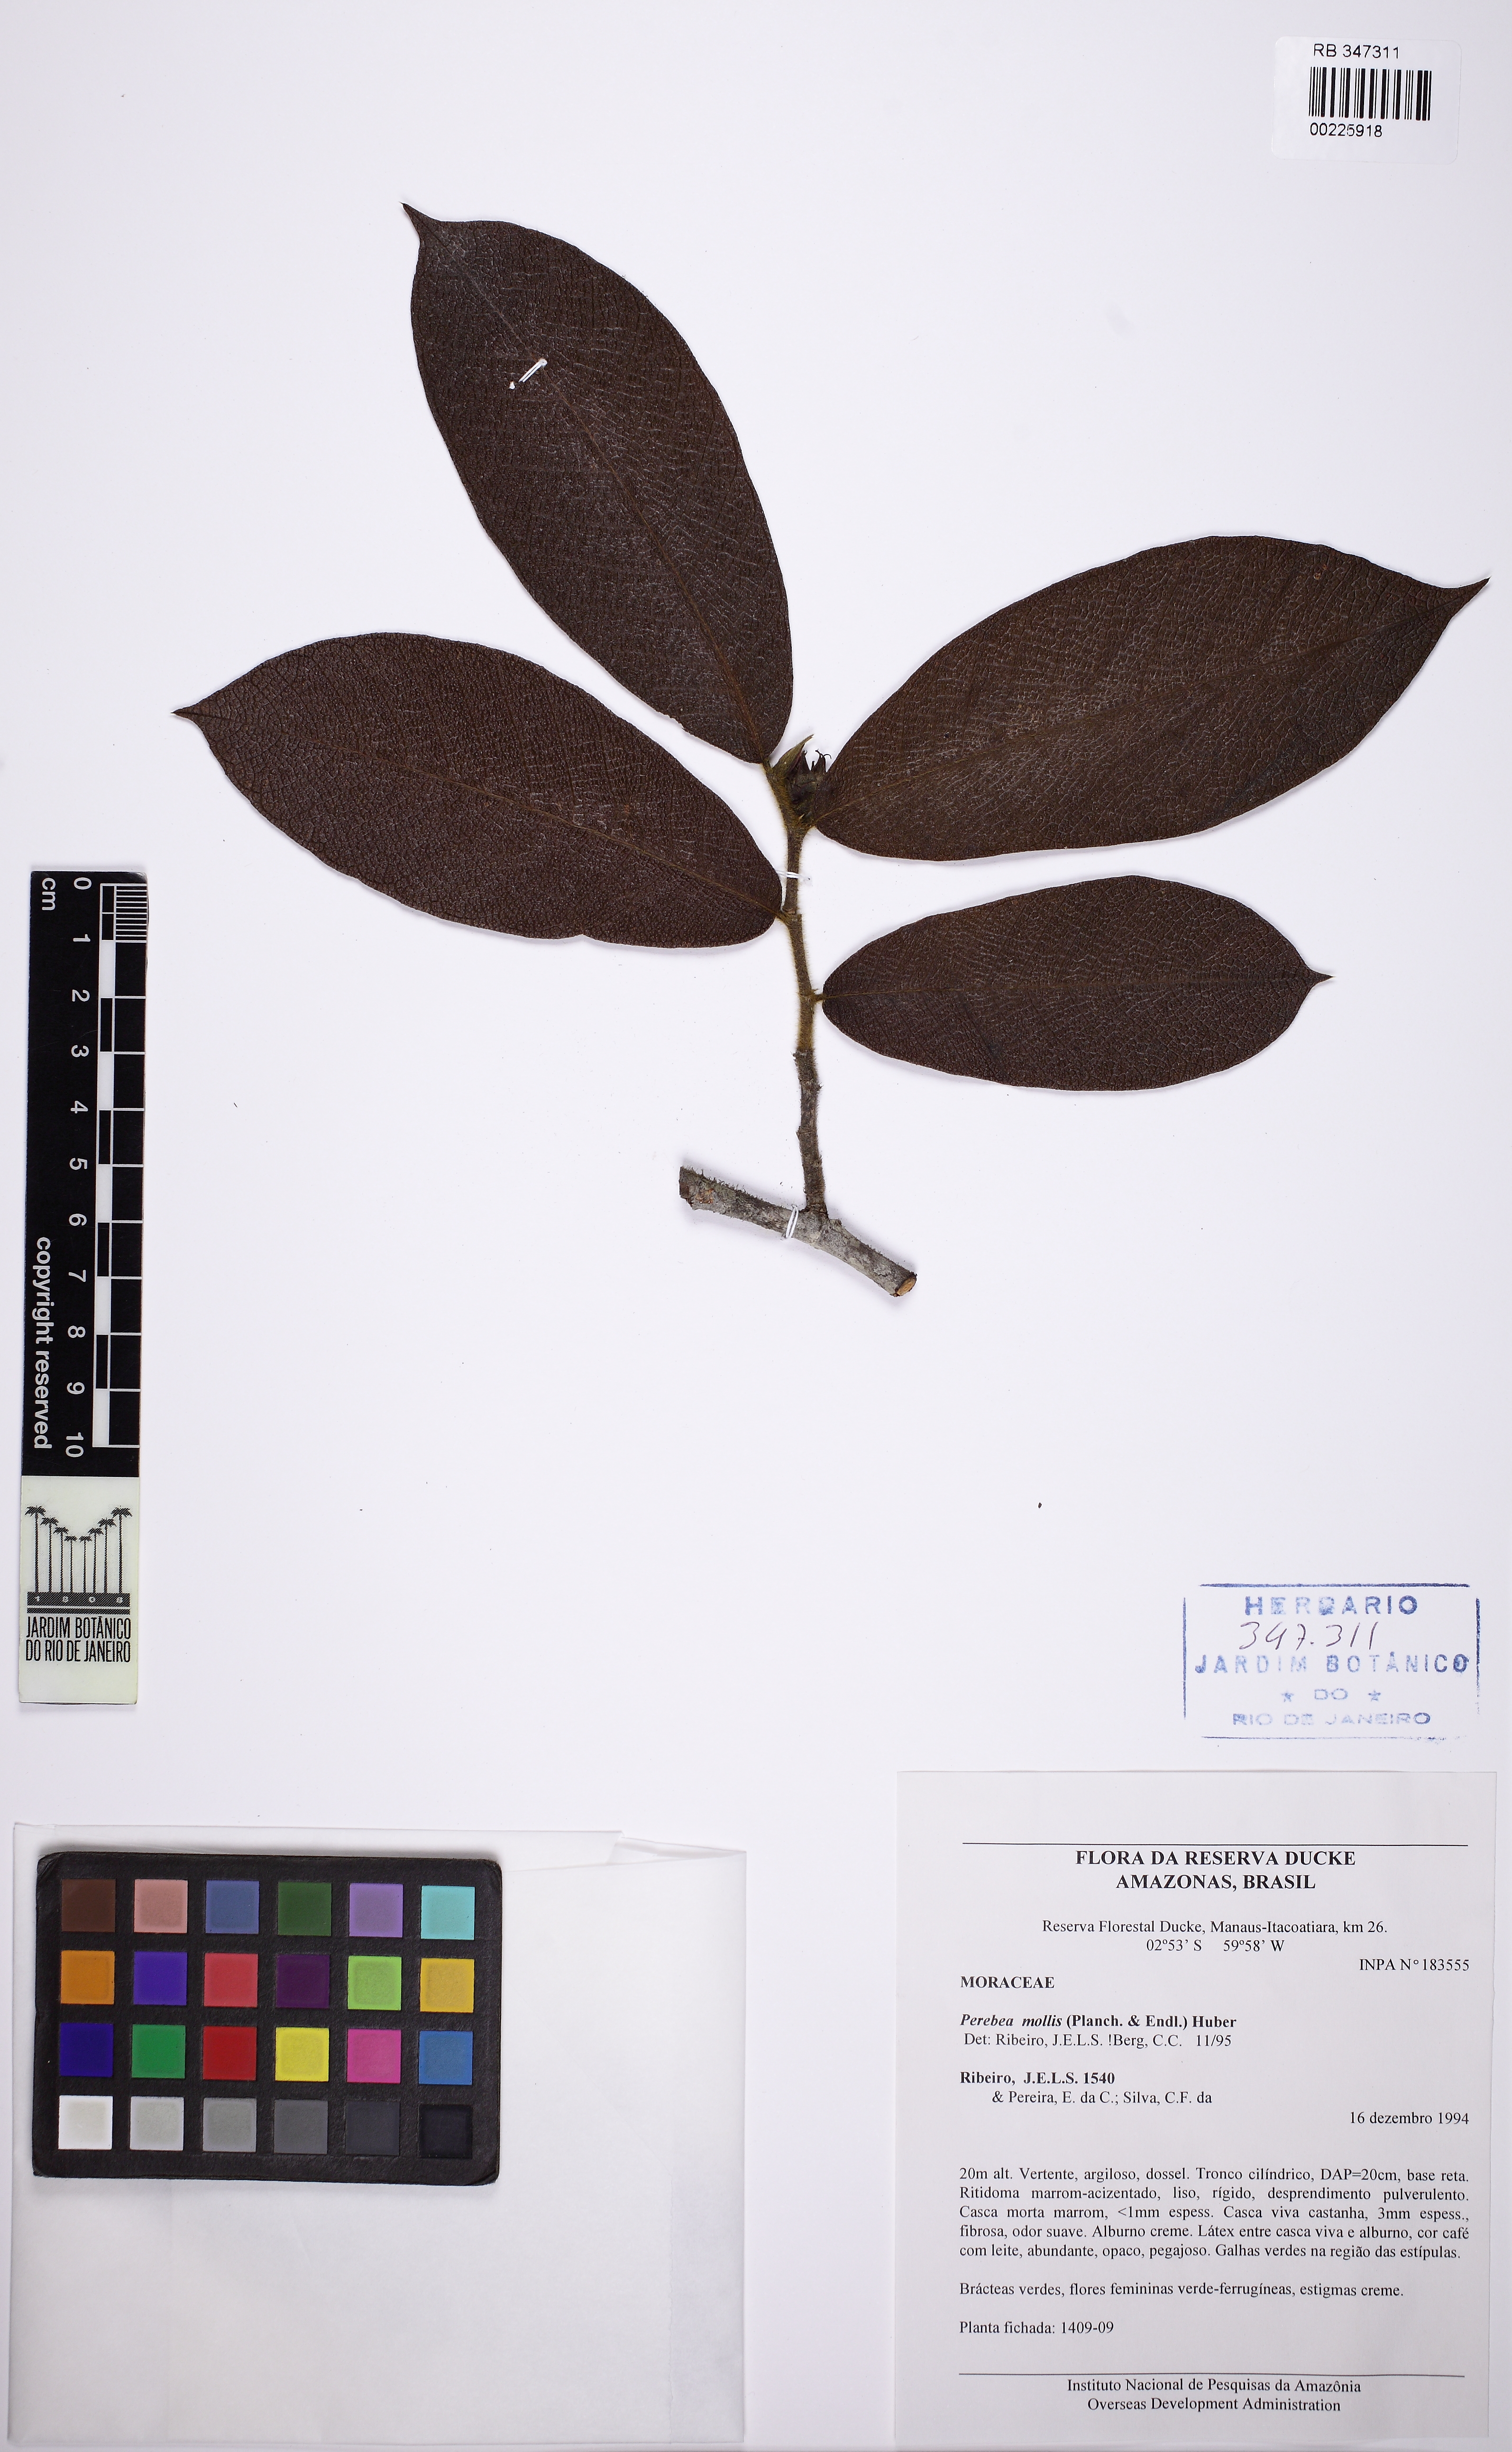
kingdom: Plantae
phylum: Tracheophyta
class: Magnoliopsida
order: Rosales
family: Moraceae
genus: Perebea
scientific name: Perebea mollis
